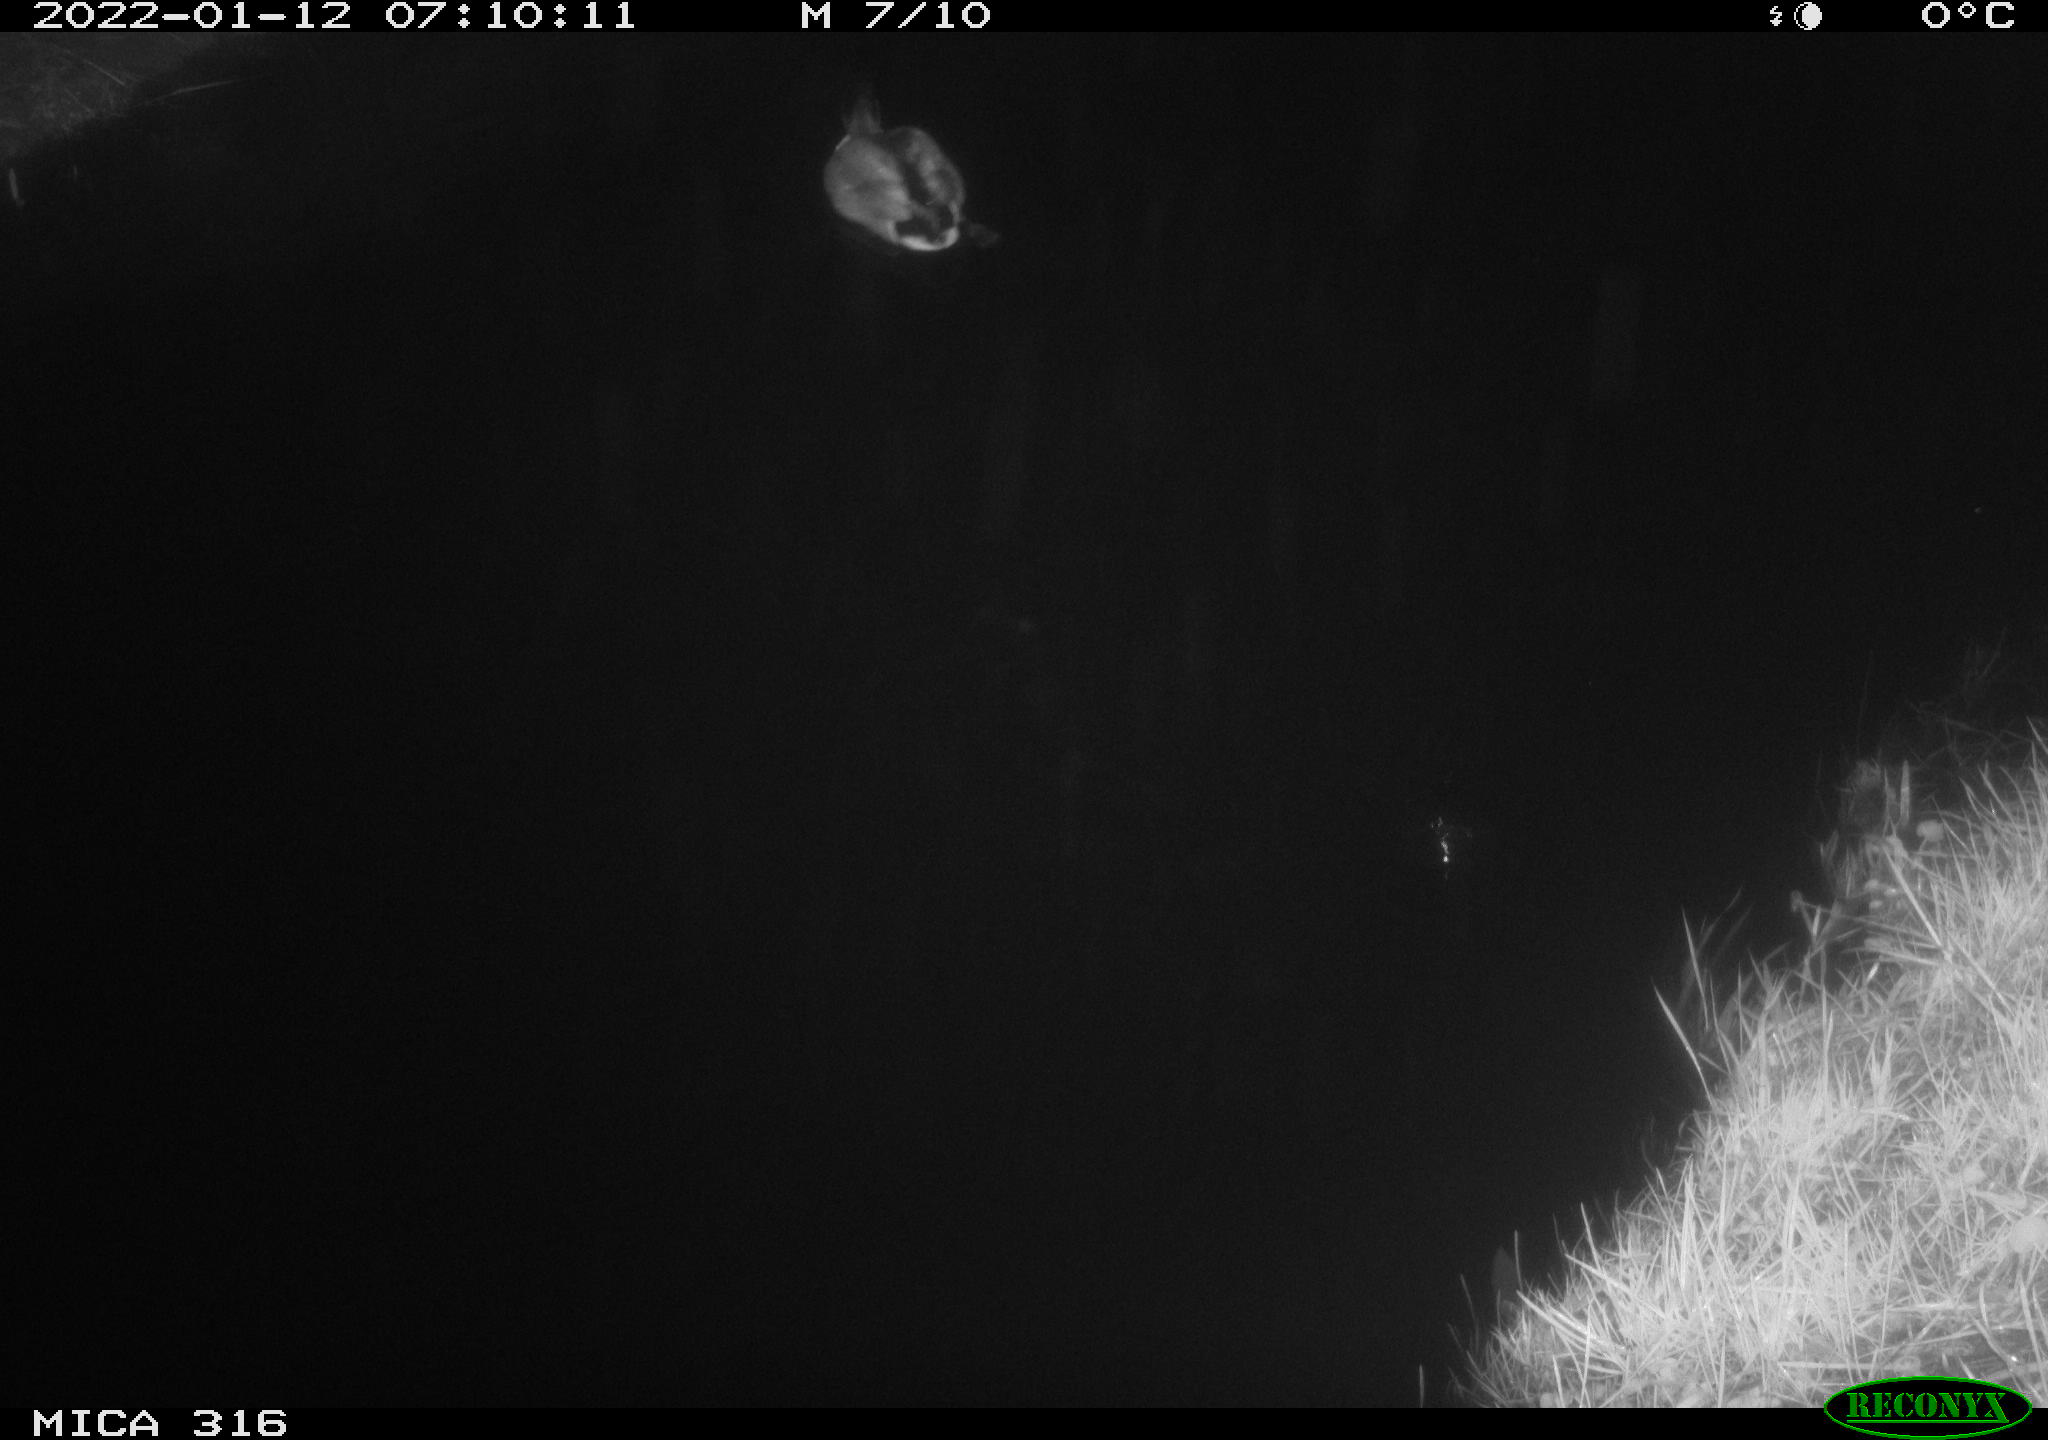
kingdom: Animalia
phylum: Chordata
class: Aves
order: Anseriformes
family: Anatidae
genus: Anas
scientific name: Anas
